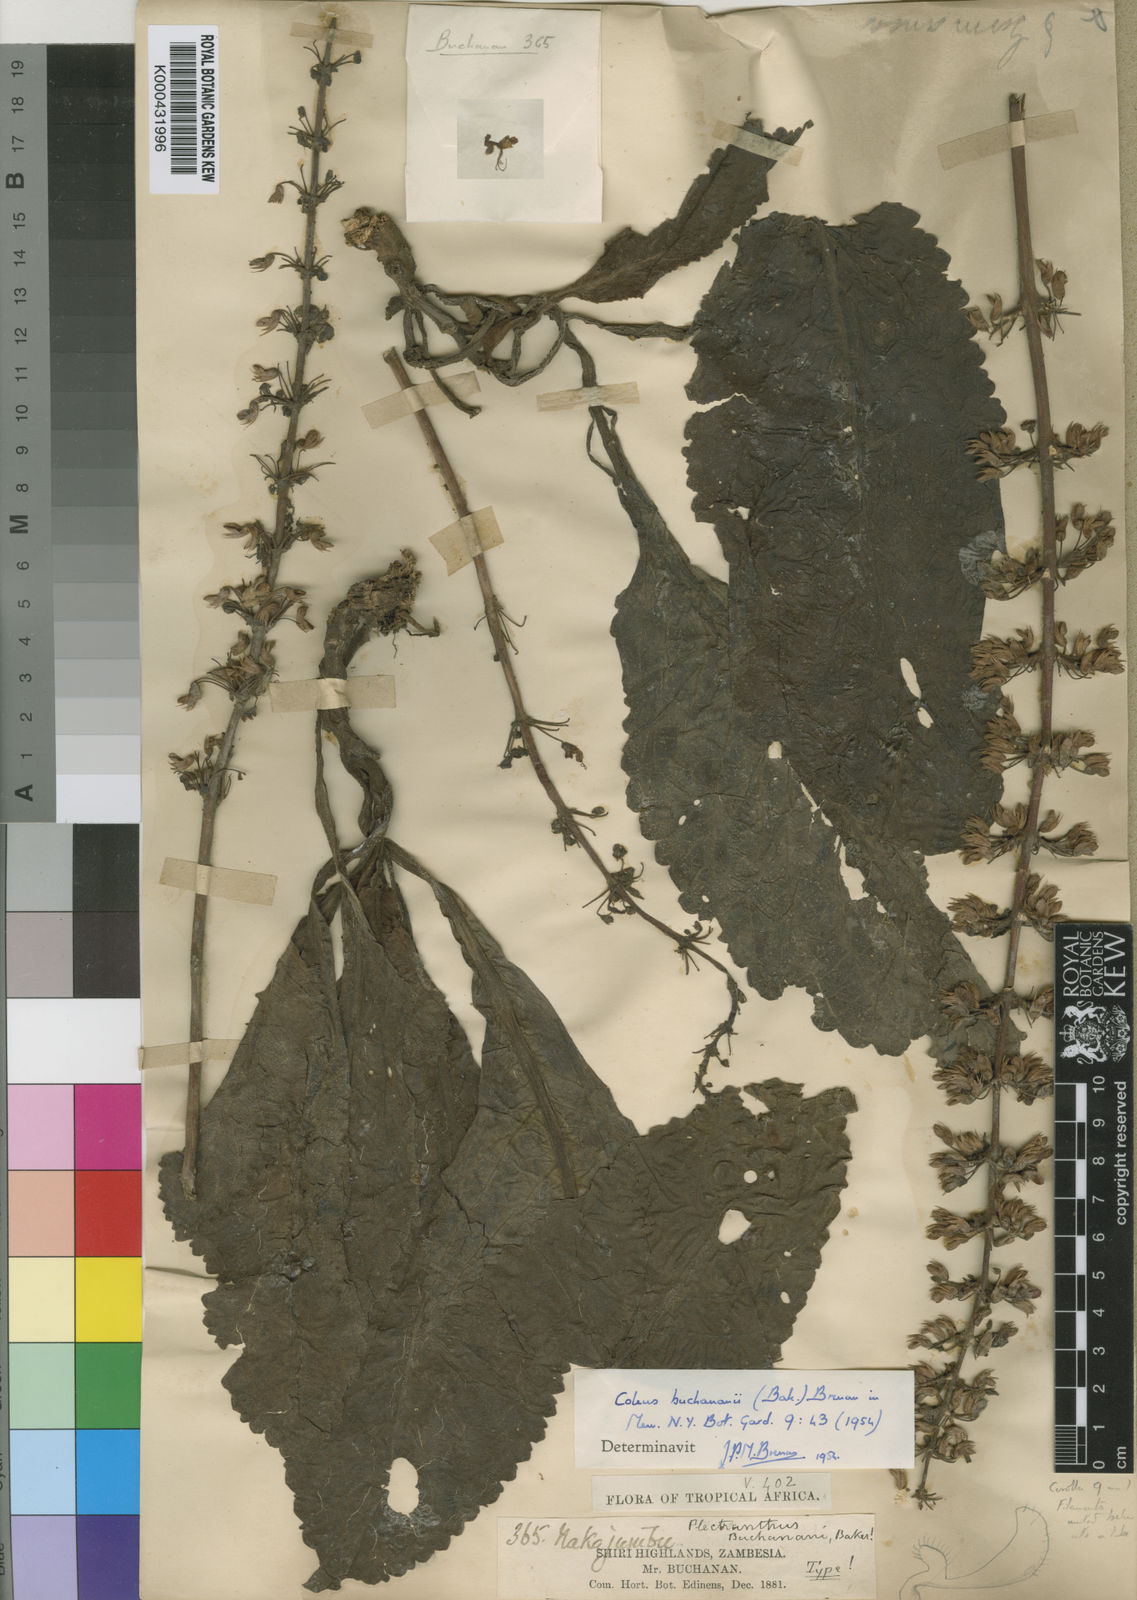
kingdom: Plantae
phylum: Tracheophyta
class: Magnoliopsida
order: Lamiales
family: Lamiaceae
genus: Coleus
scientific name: Coleus buchananii
